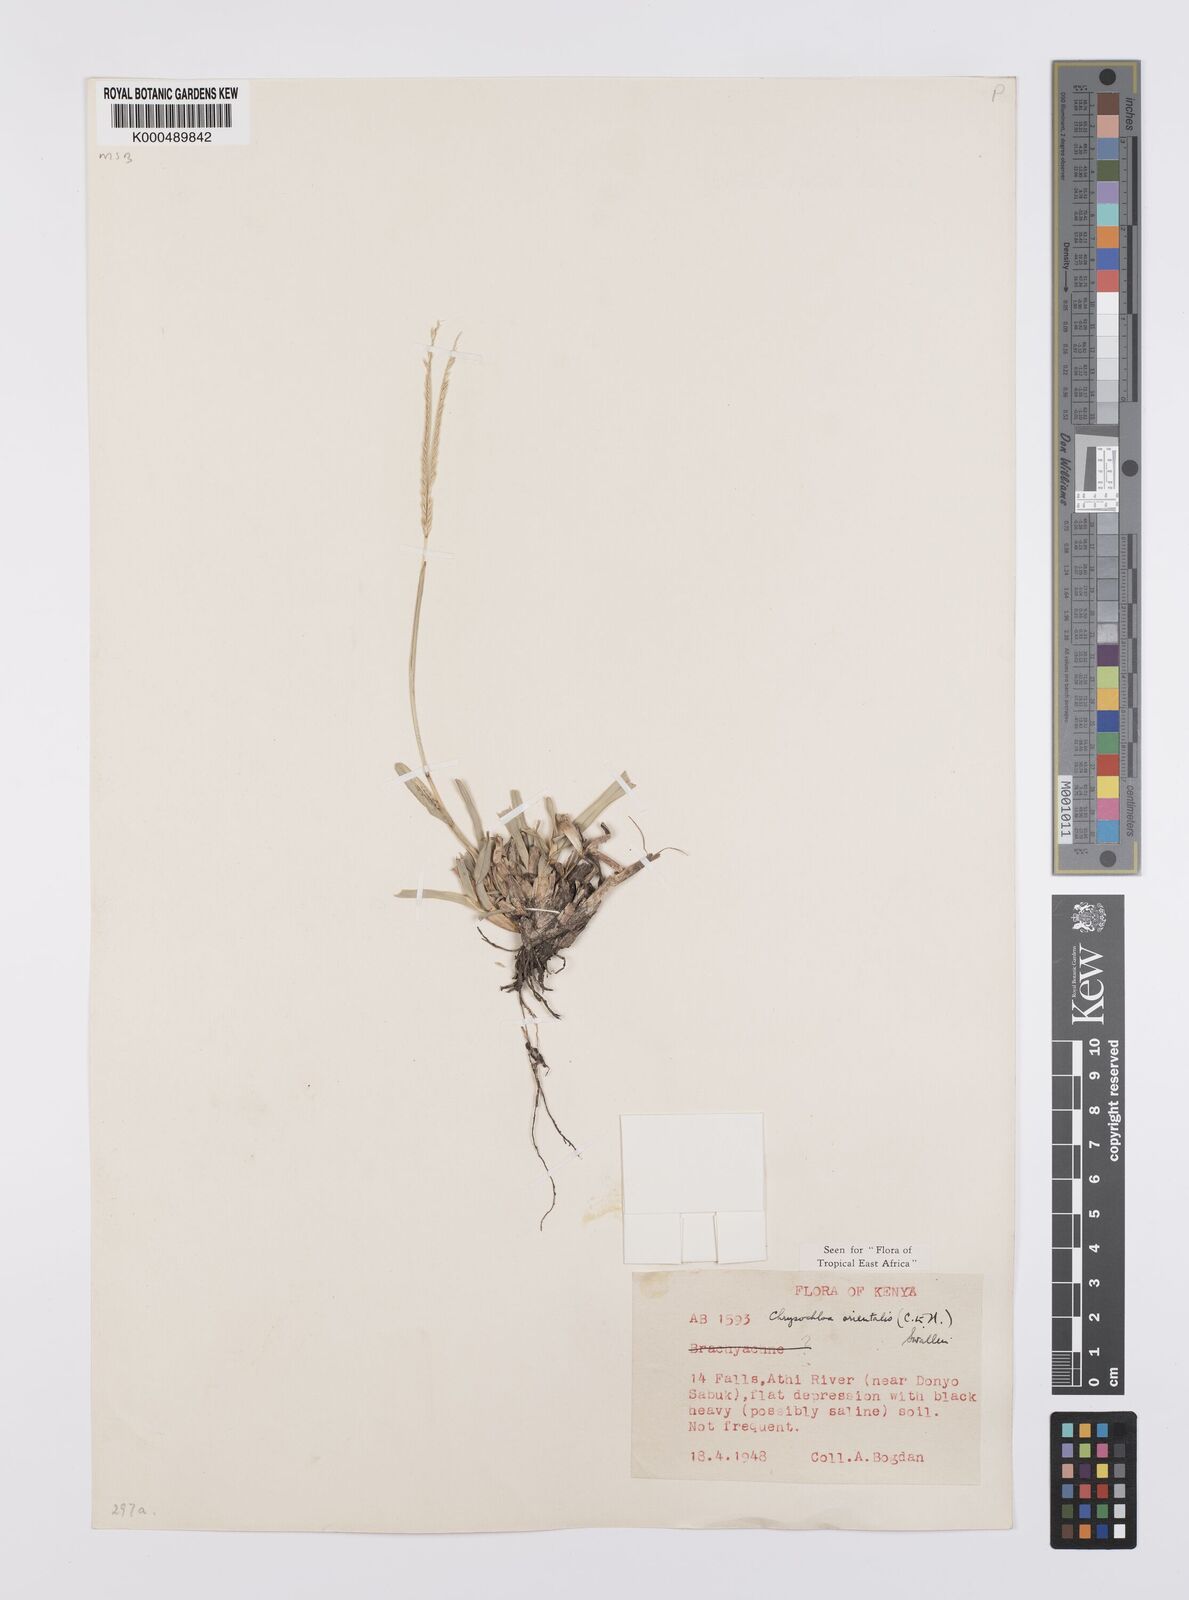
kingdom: Plantae
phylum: Tracheophyta
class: Liliopsida
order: Poales
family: Poaceae
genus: Chrysochloa
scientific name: Chrysochloa
